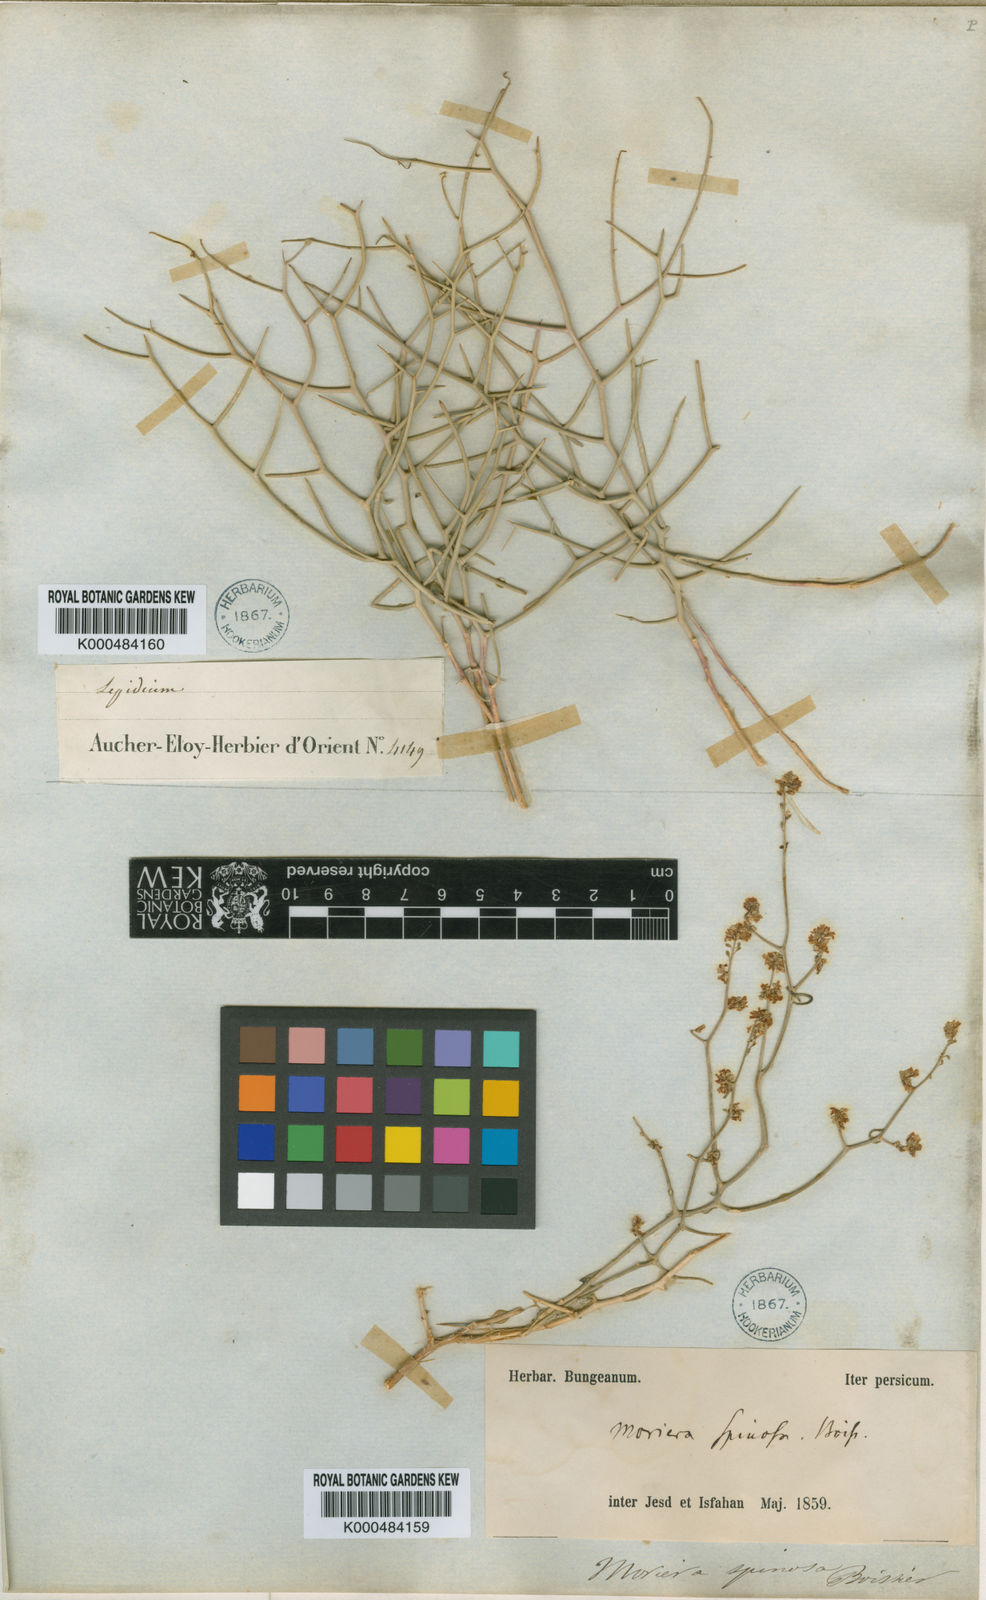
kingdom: Plantae
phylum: Tracheophyta
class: Magnoliopsida
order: Brassicales
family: Brassicaceae
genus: Aethionema
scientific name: Aethionema spinosum
